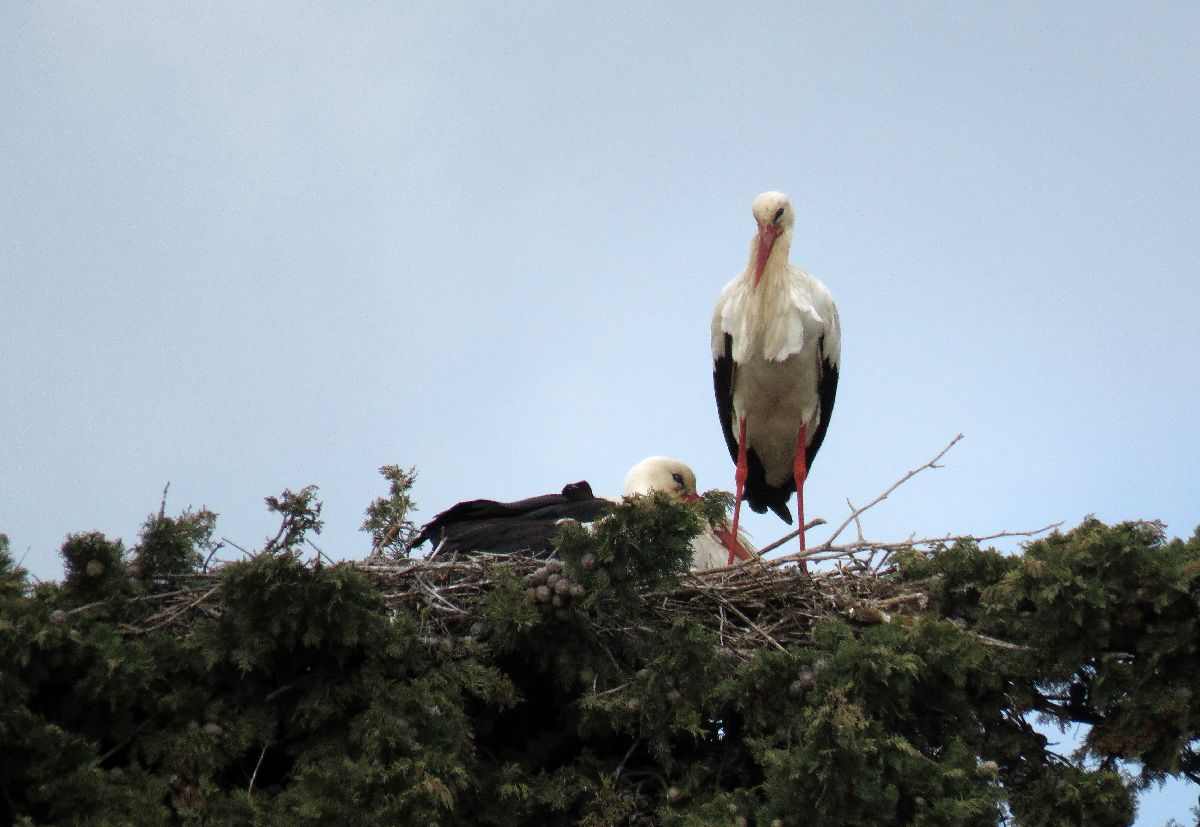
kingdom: Animalia
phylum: Chordata
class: Aves
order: Ciconiiformes
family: Ciconiidae
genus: Ciconia
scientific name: Ciconia ciconia
